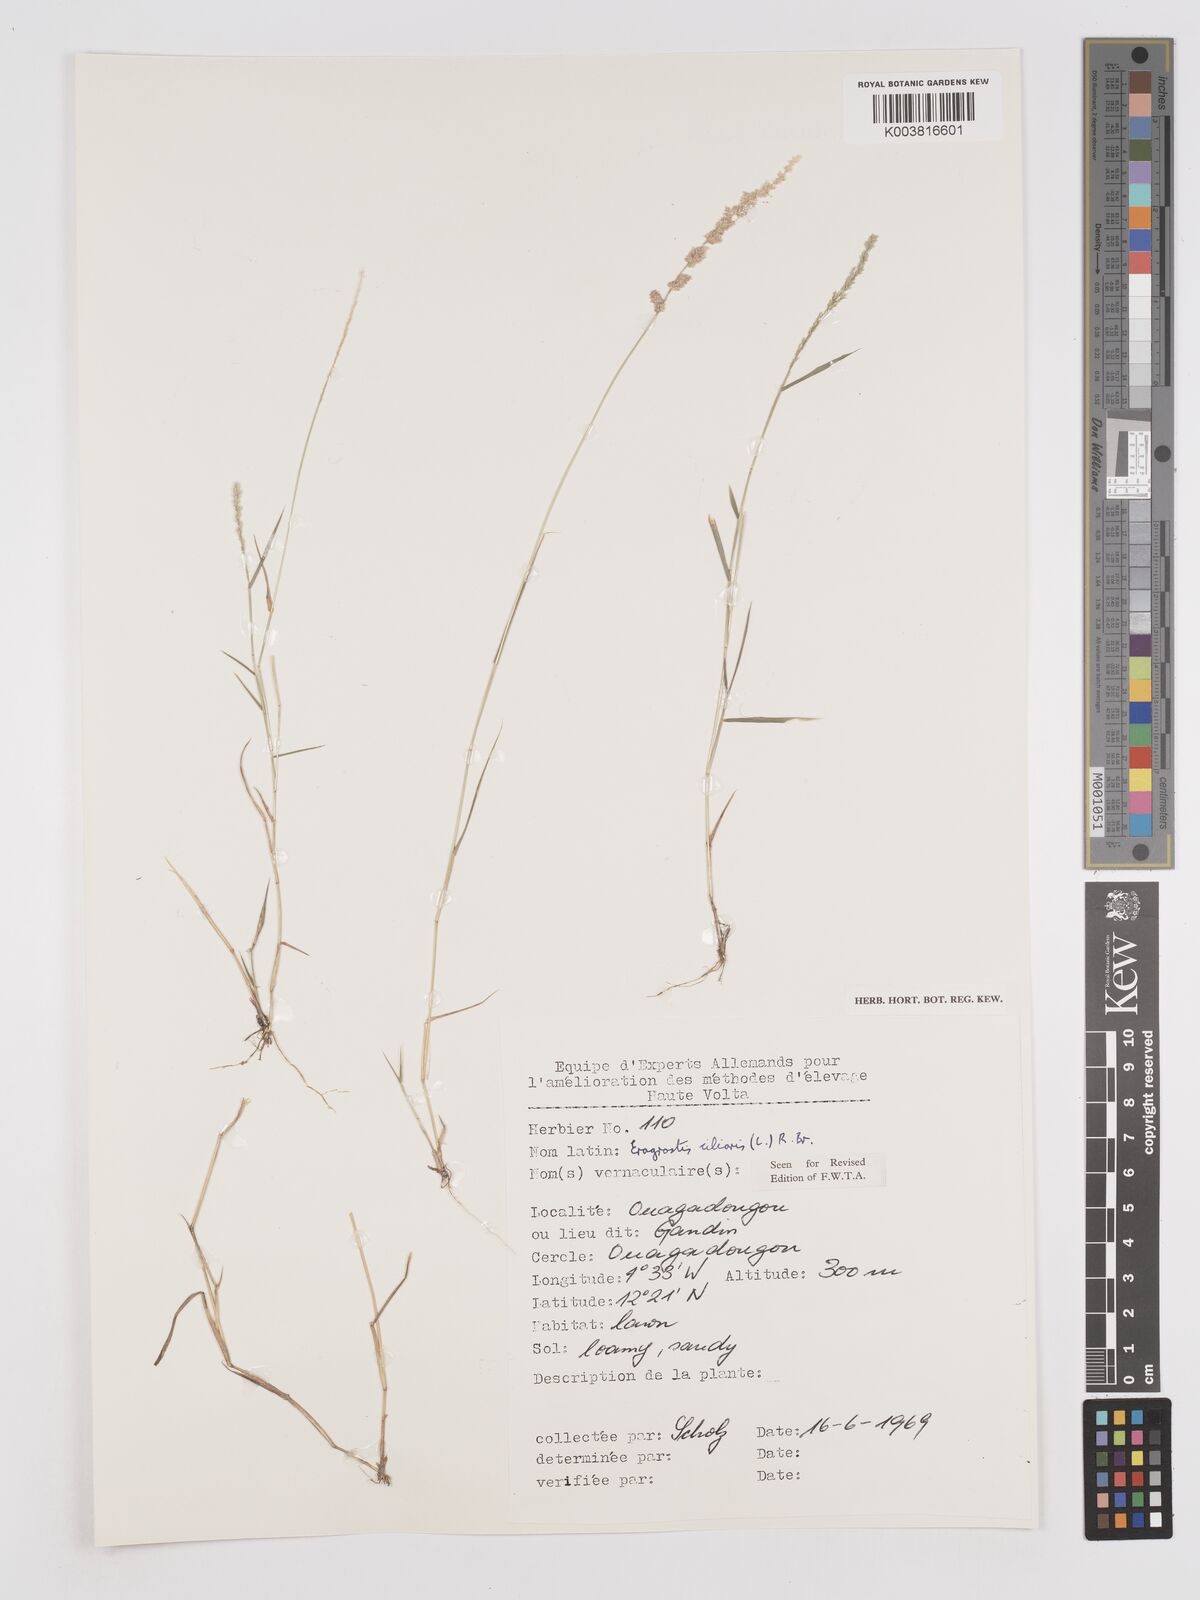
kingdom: Plantae
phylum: Tracheophyta
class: Liliopsida
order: Poales
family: Poaceae
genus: Eragrostis
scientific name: Eragrostis ciliaris
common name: Gophertail lovegrass
